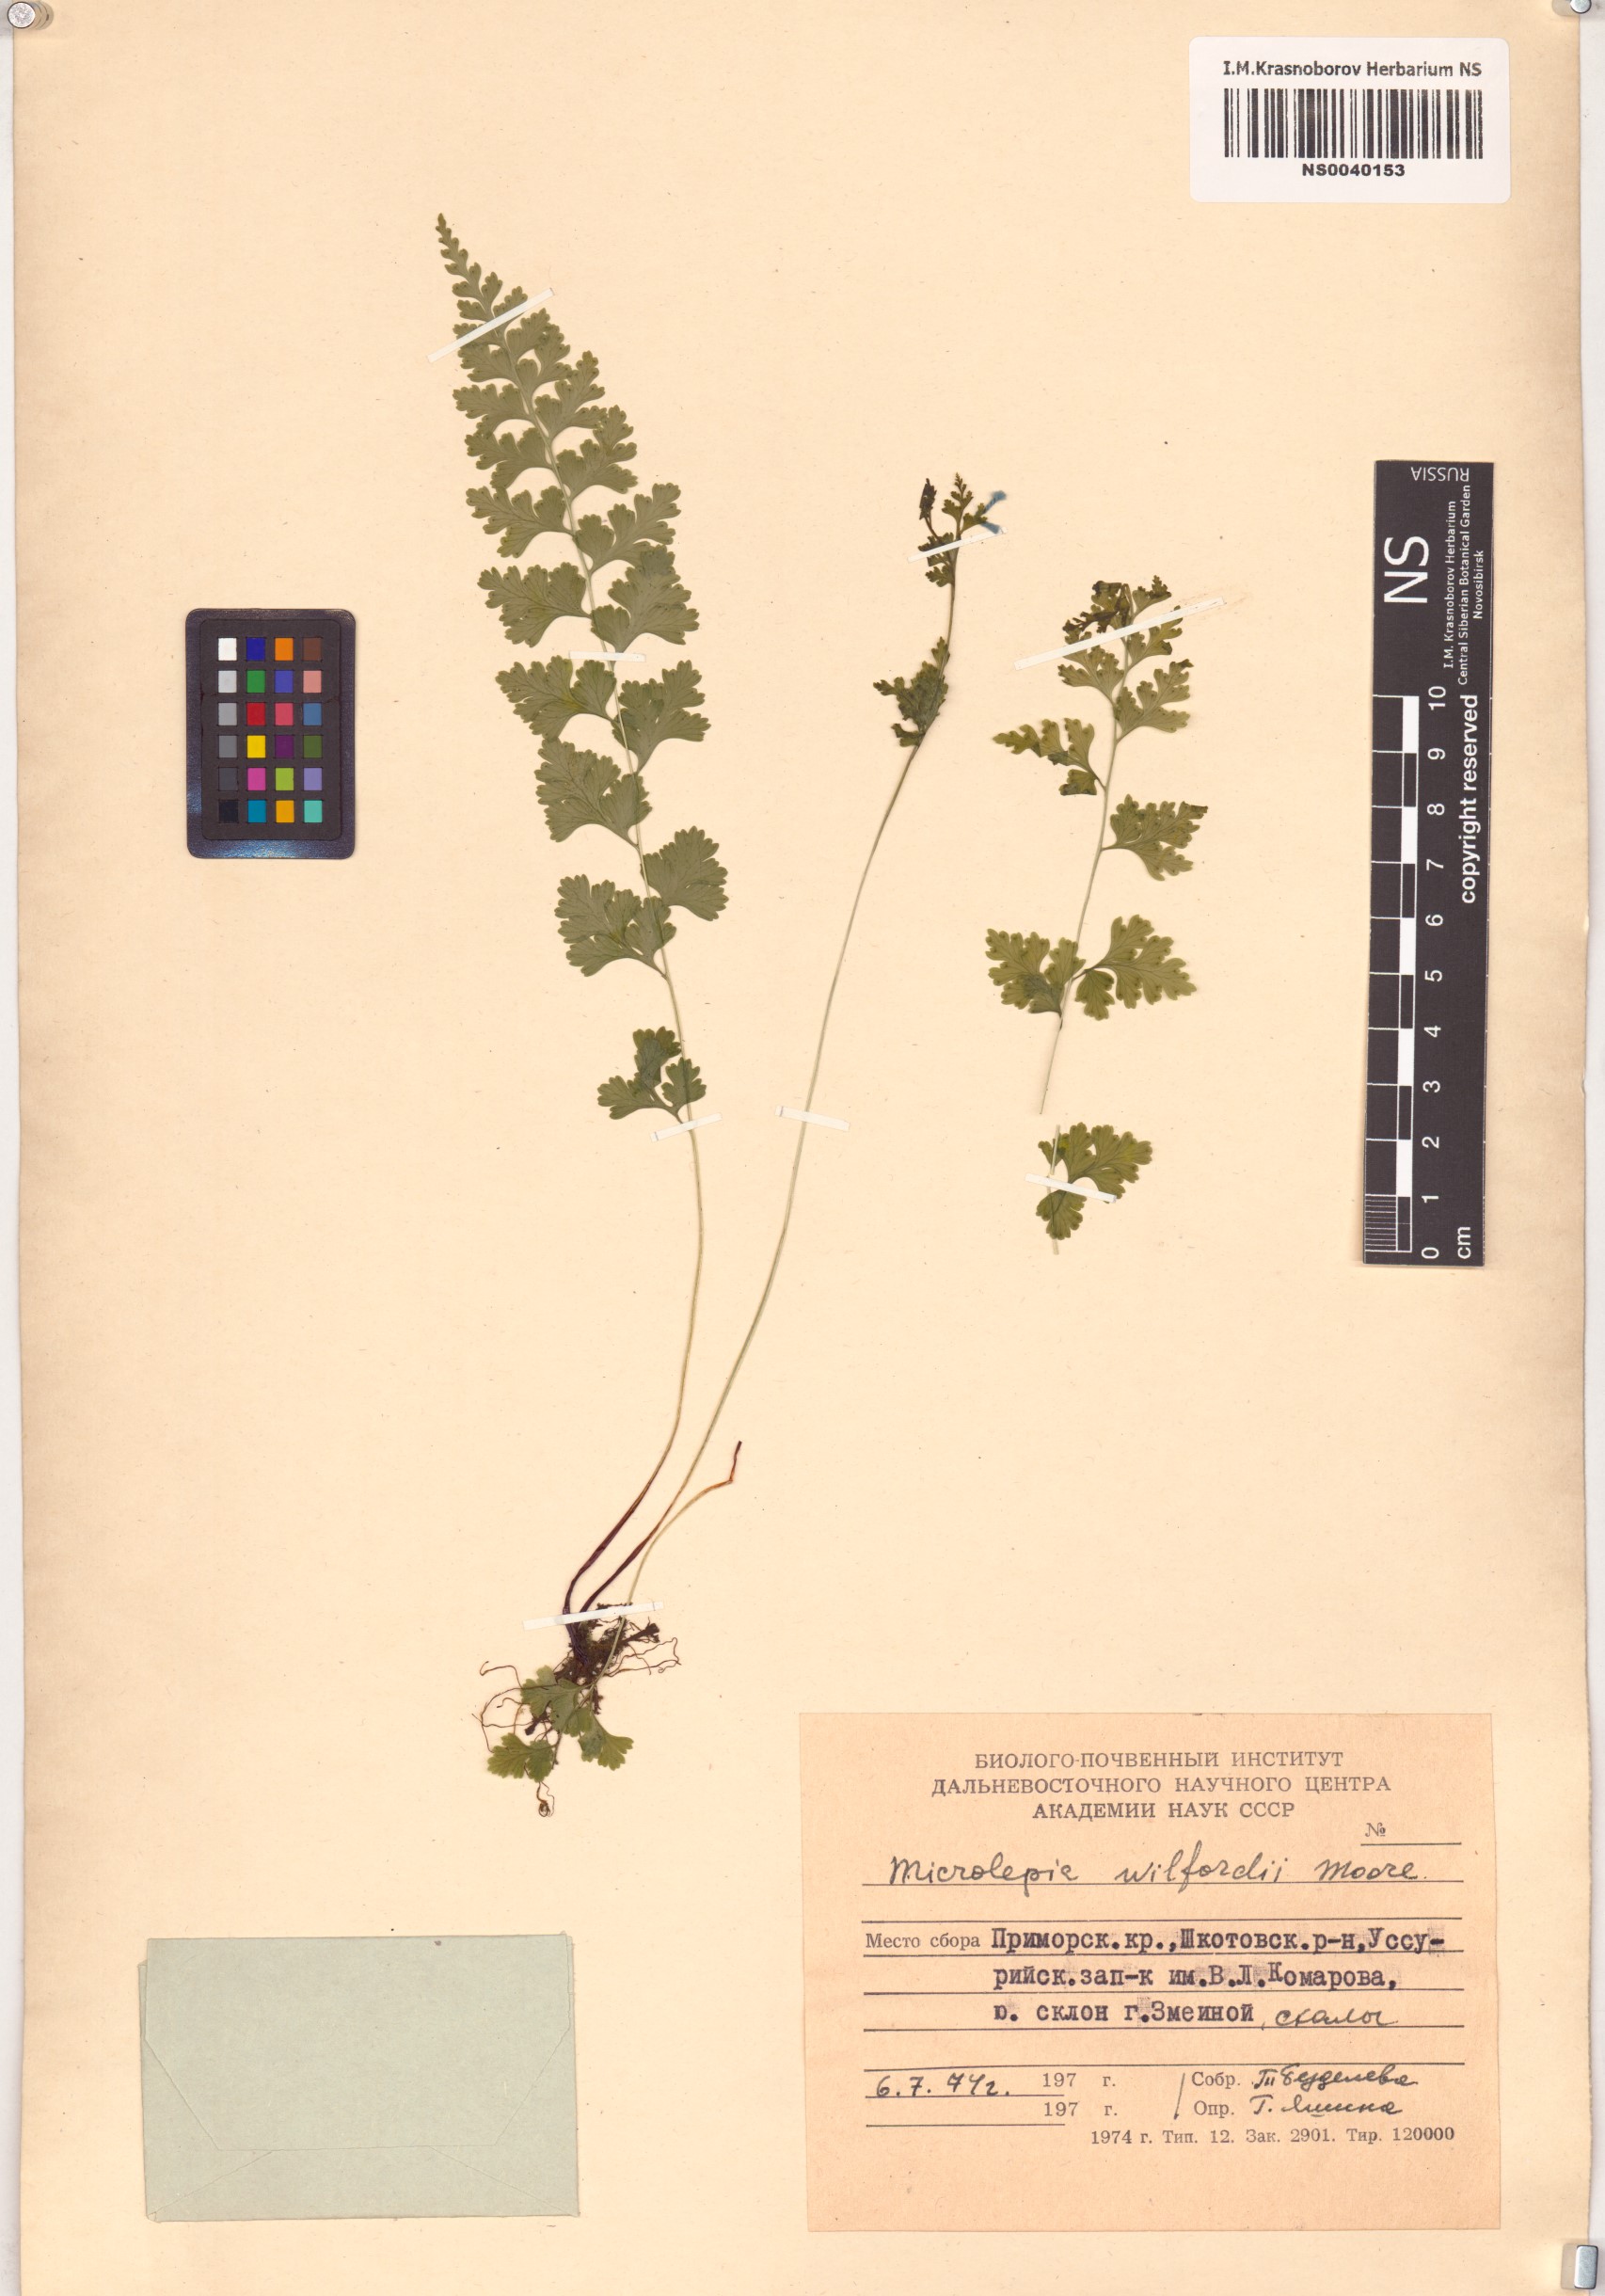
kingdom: Plantae
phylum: Tracheophyta
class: Polypodiopsida
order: Polypodiales
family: Dennstaedtiaceae
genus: Sitobolium
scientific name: Sitobolium wilfordii
